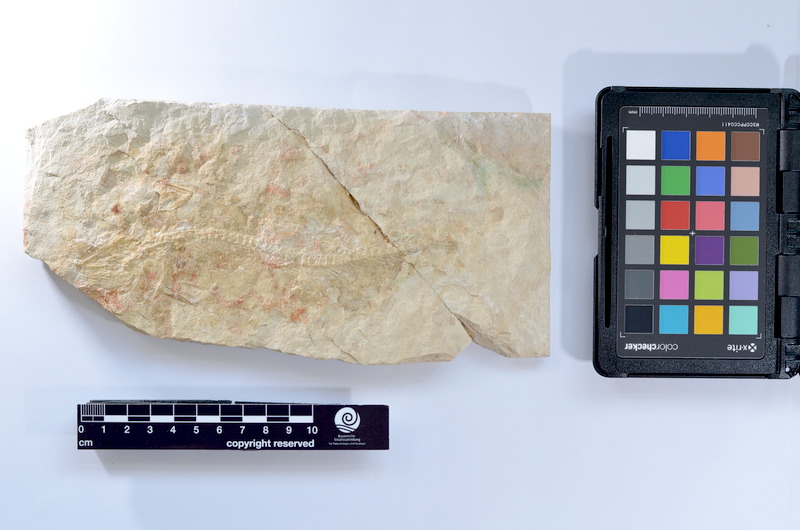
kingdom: Animalia
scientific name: Animalia
